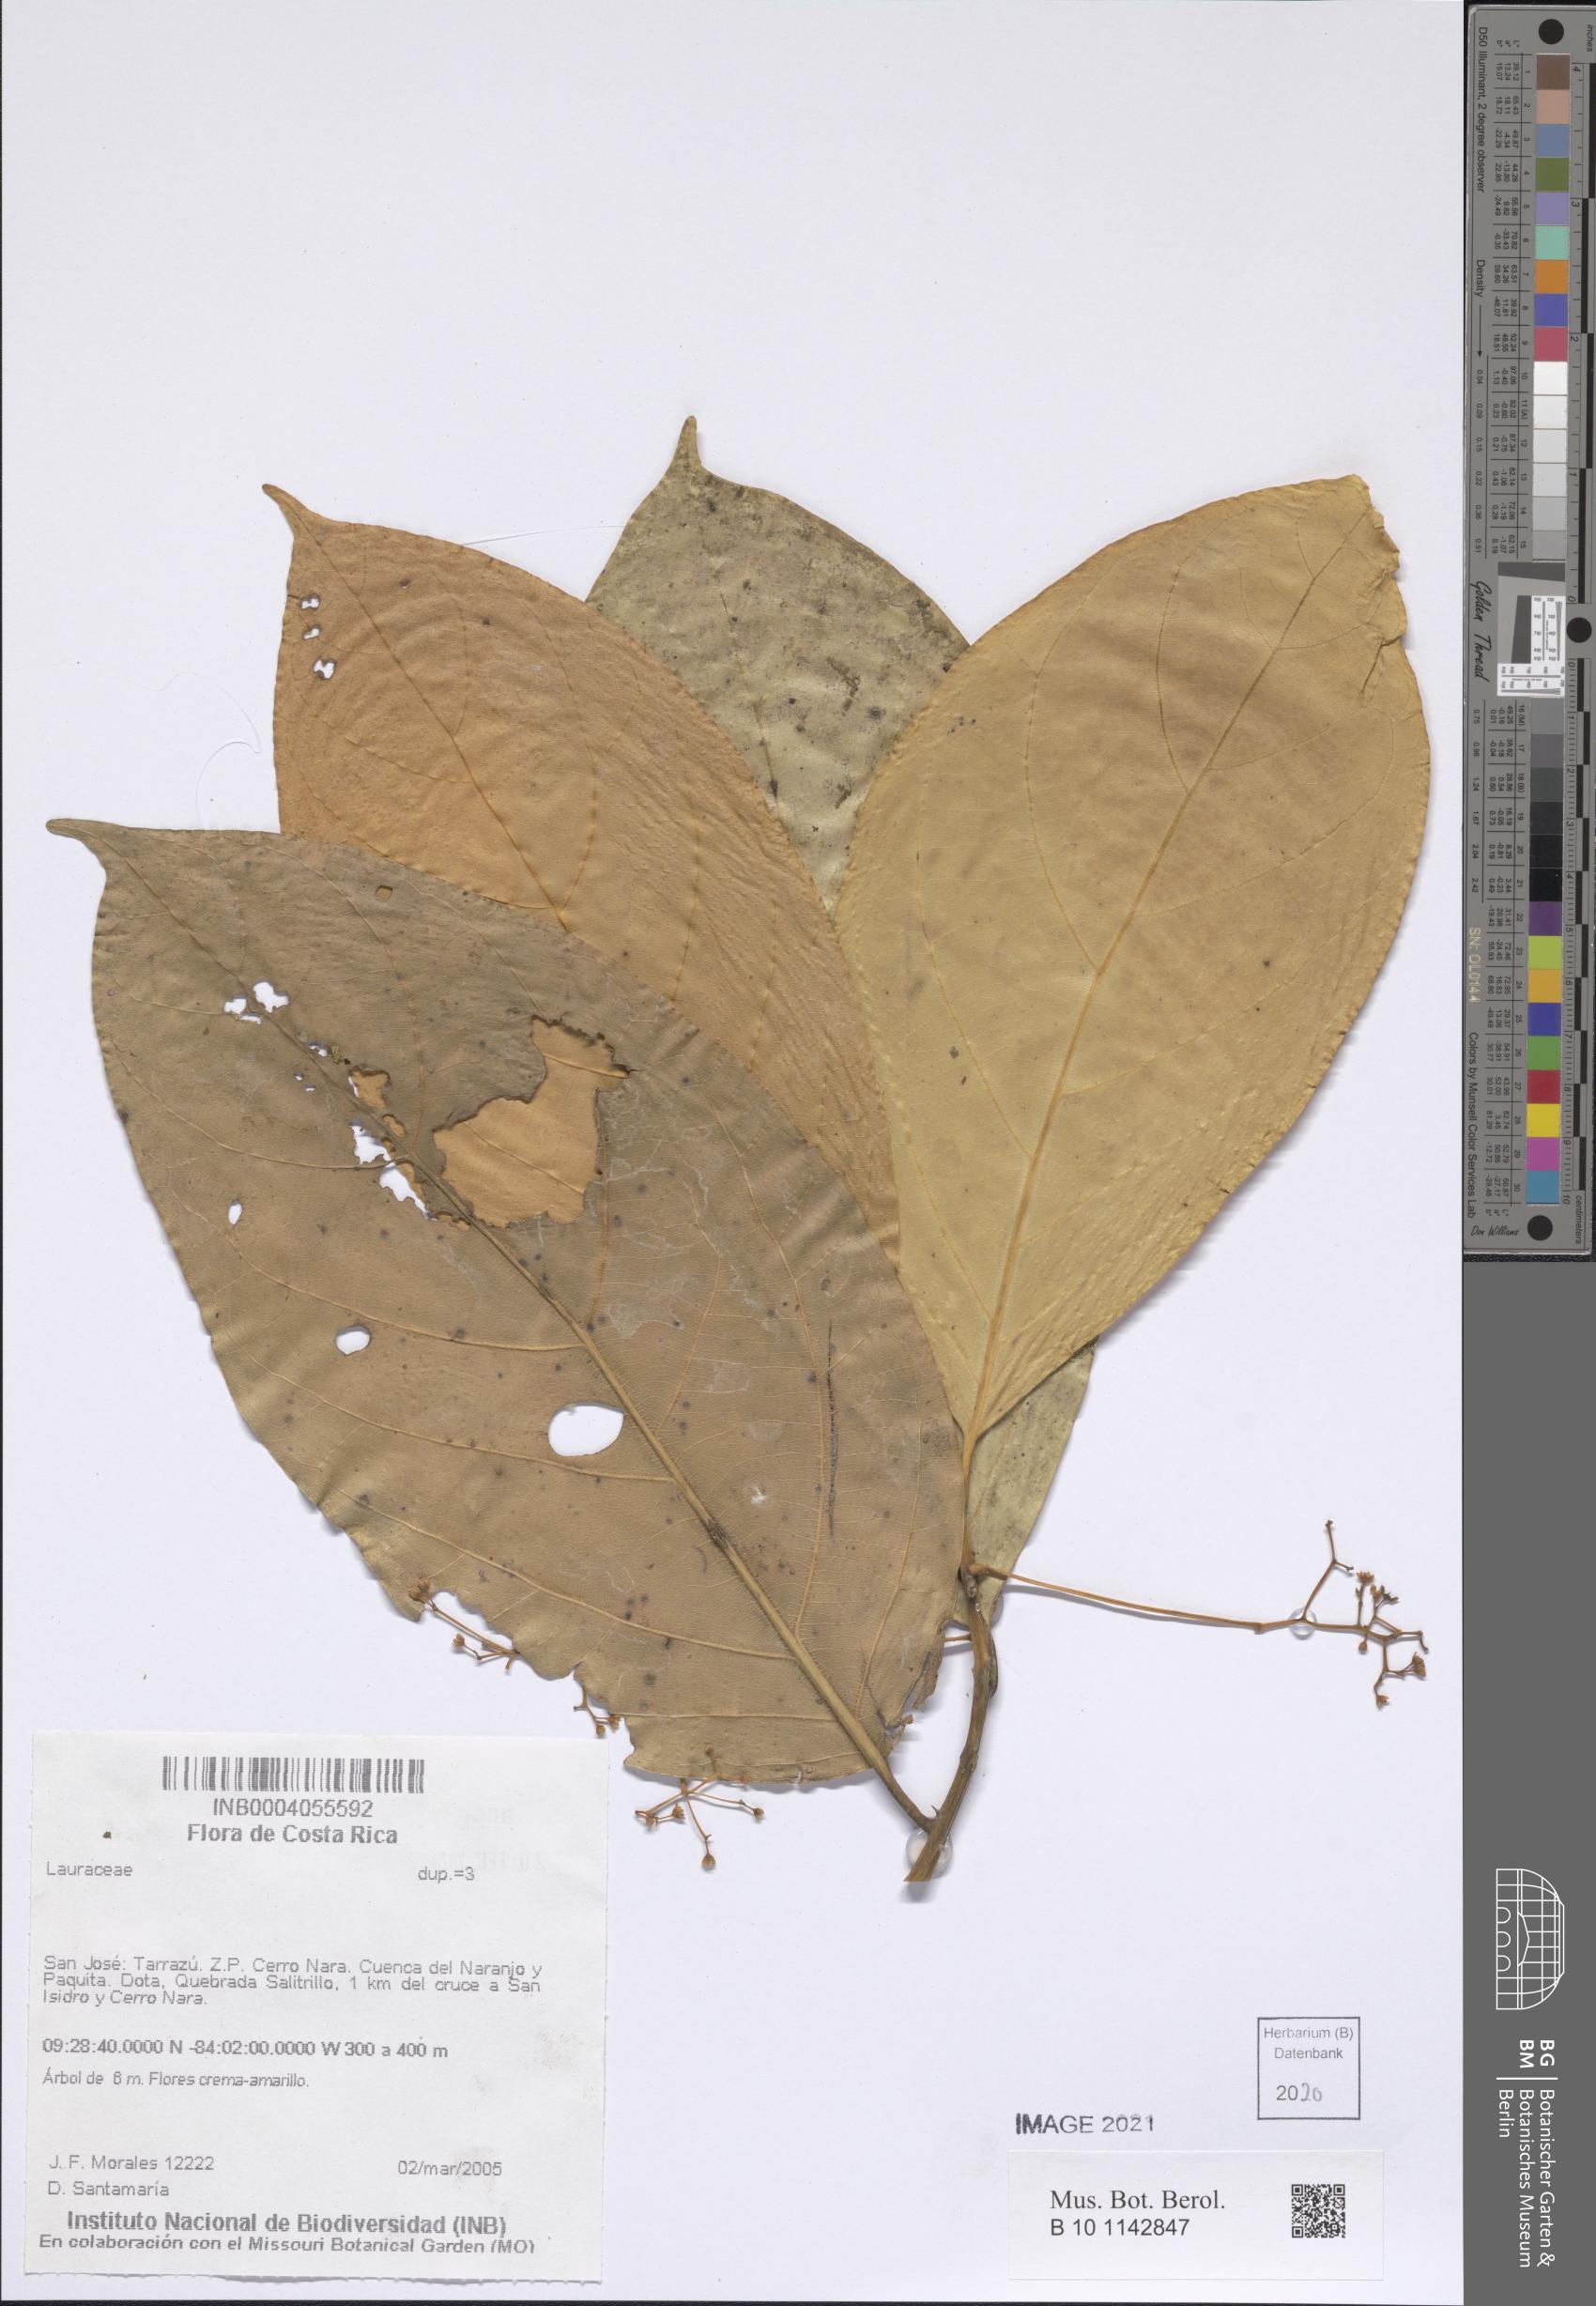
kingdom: Plantae
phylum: Tracheophyta
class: Magnoliopsida
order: Laurales
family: Lauraceae
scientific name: Lauraceae
